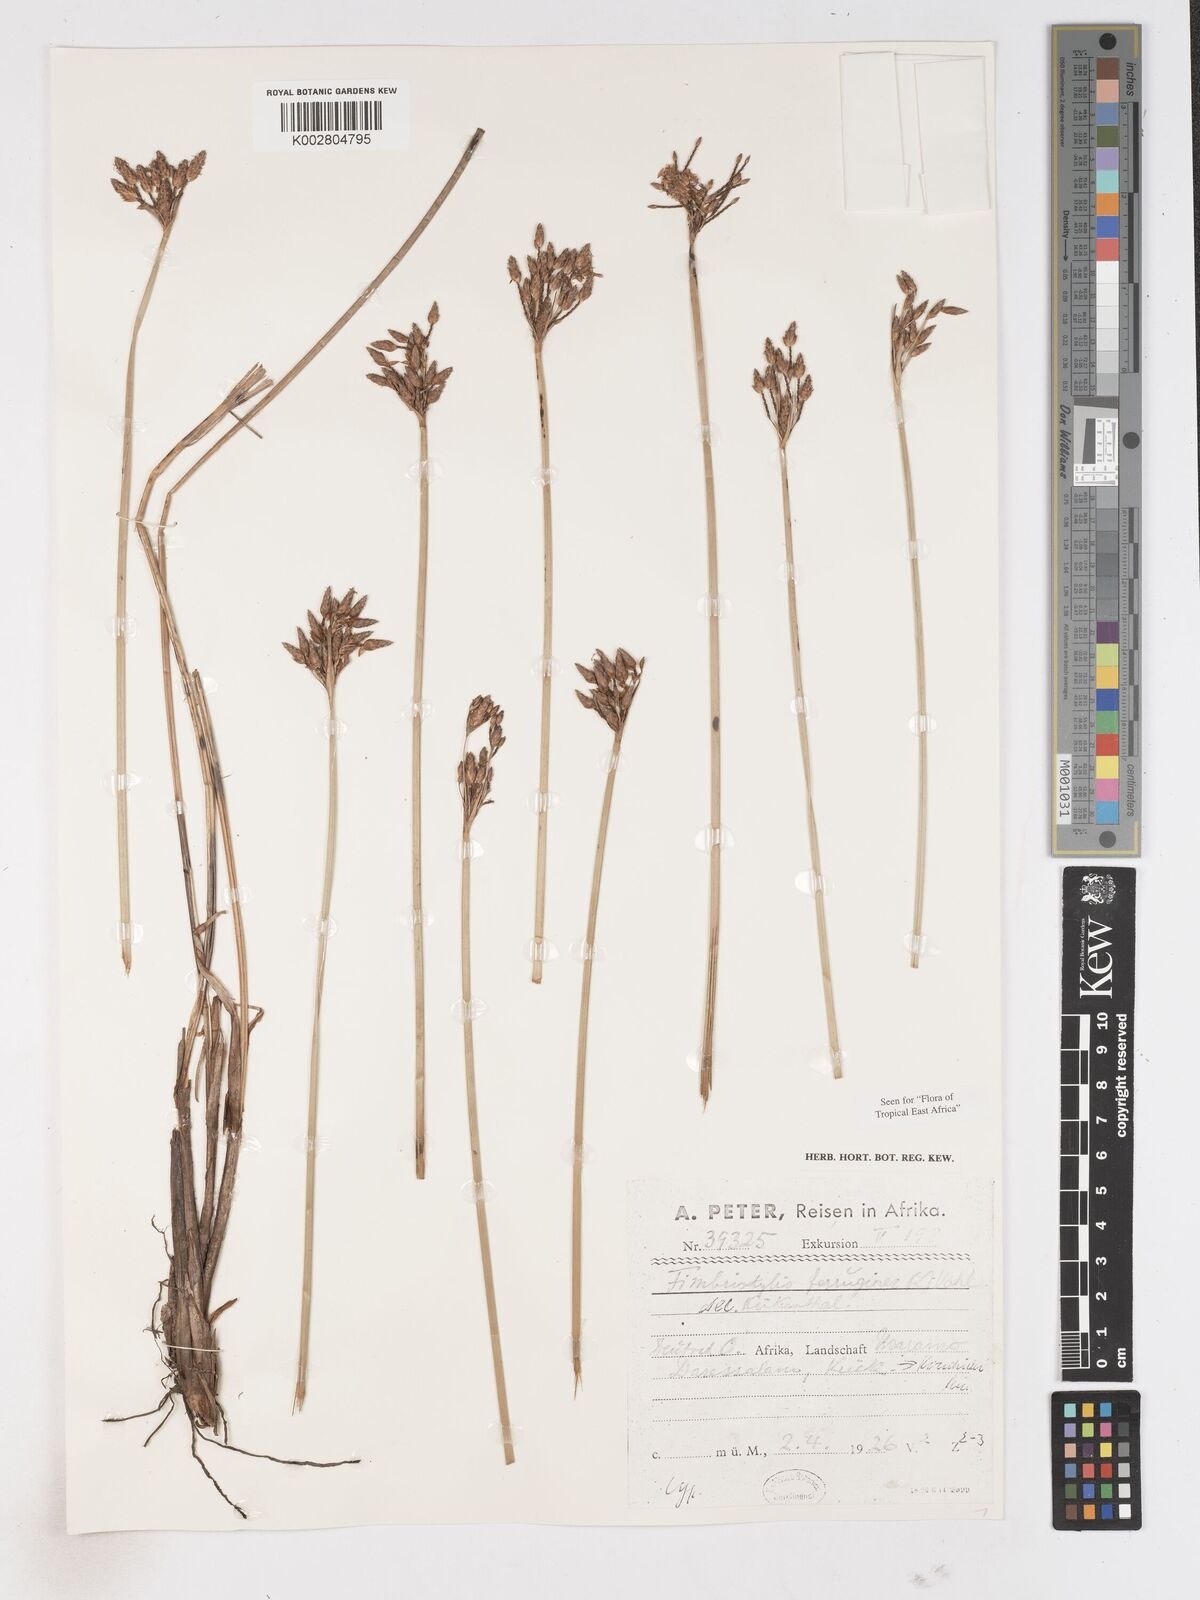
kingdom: Plantae
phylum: Tracheophyta
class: Liliopsida
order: Poales
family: Cyperaceae
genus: Fimbristylis
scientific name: Fimbristylis ferruginea
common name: West indian fimbry
